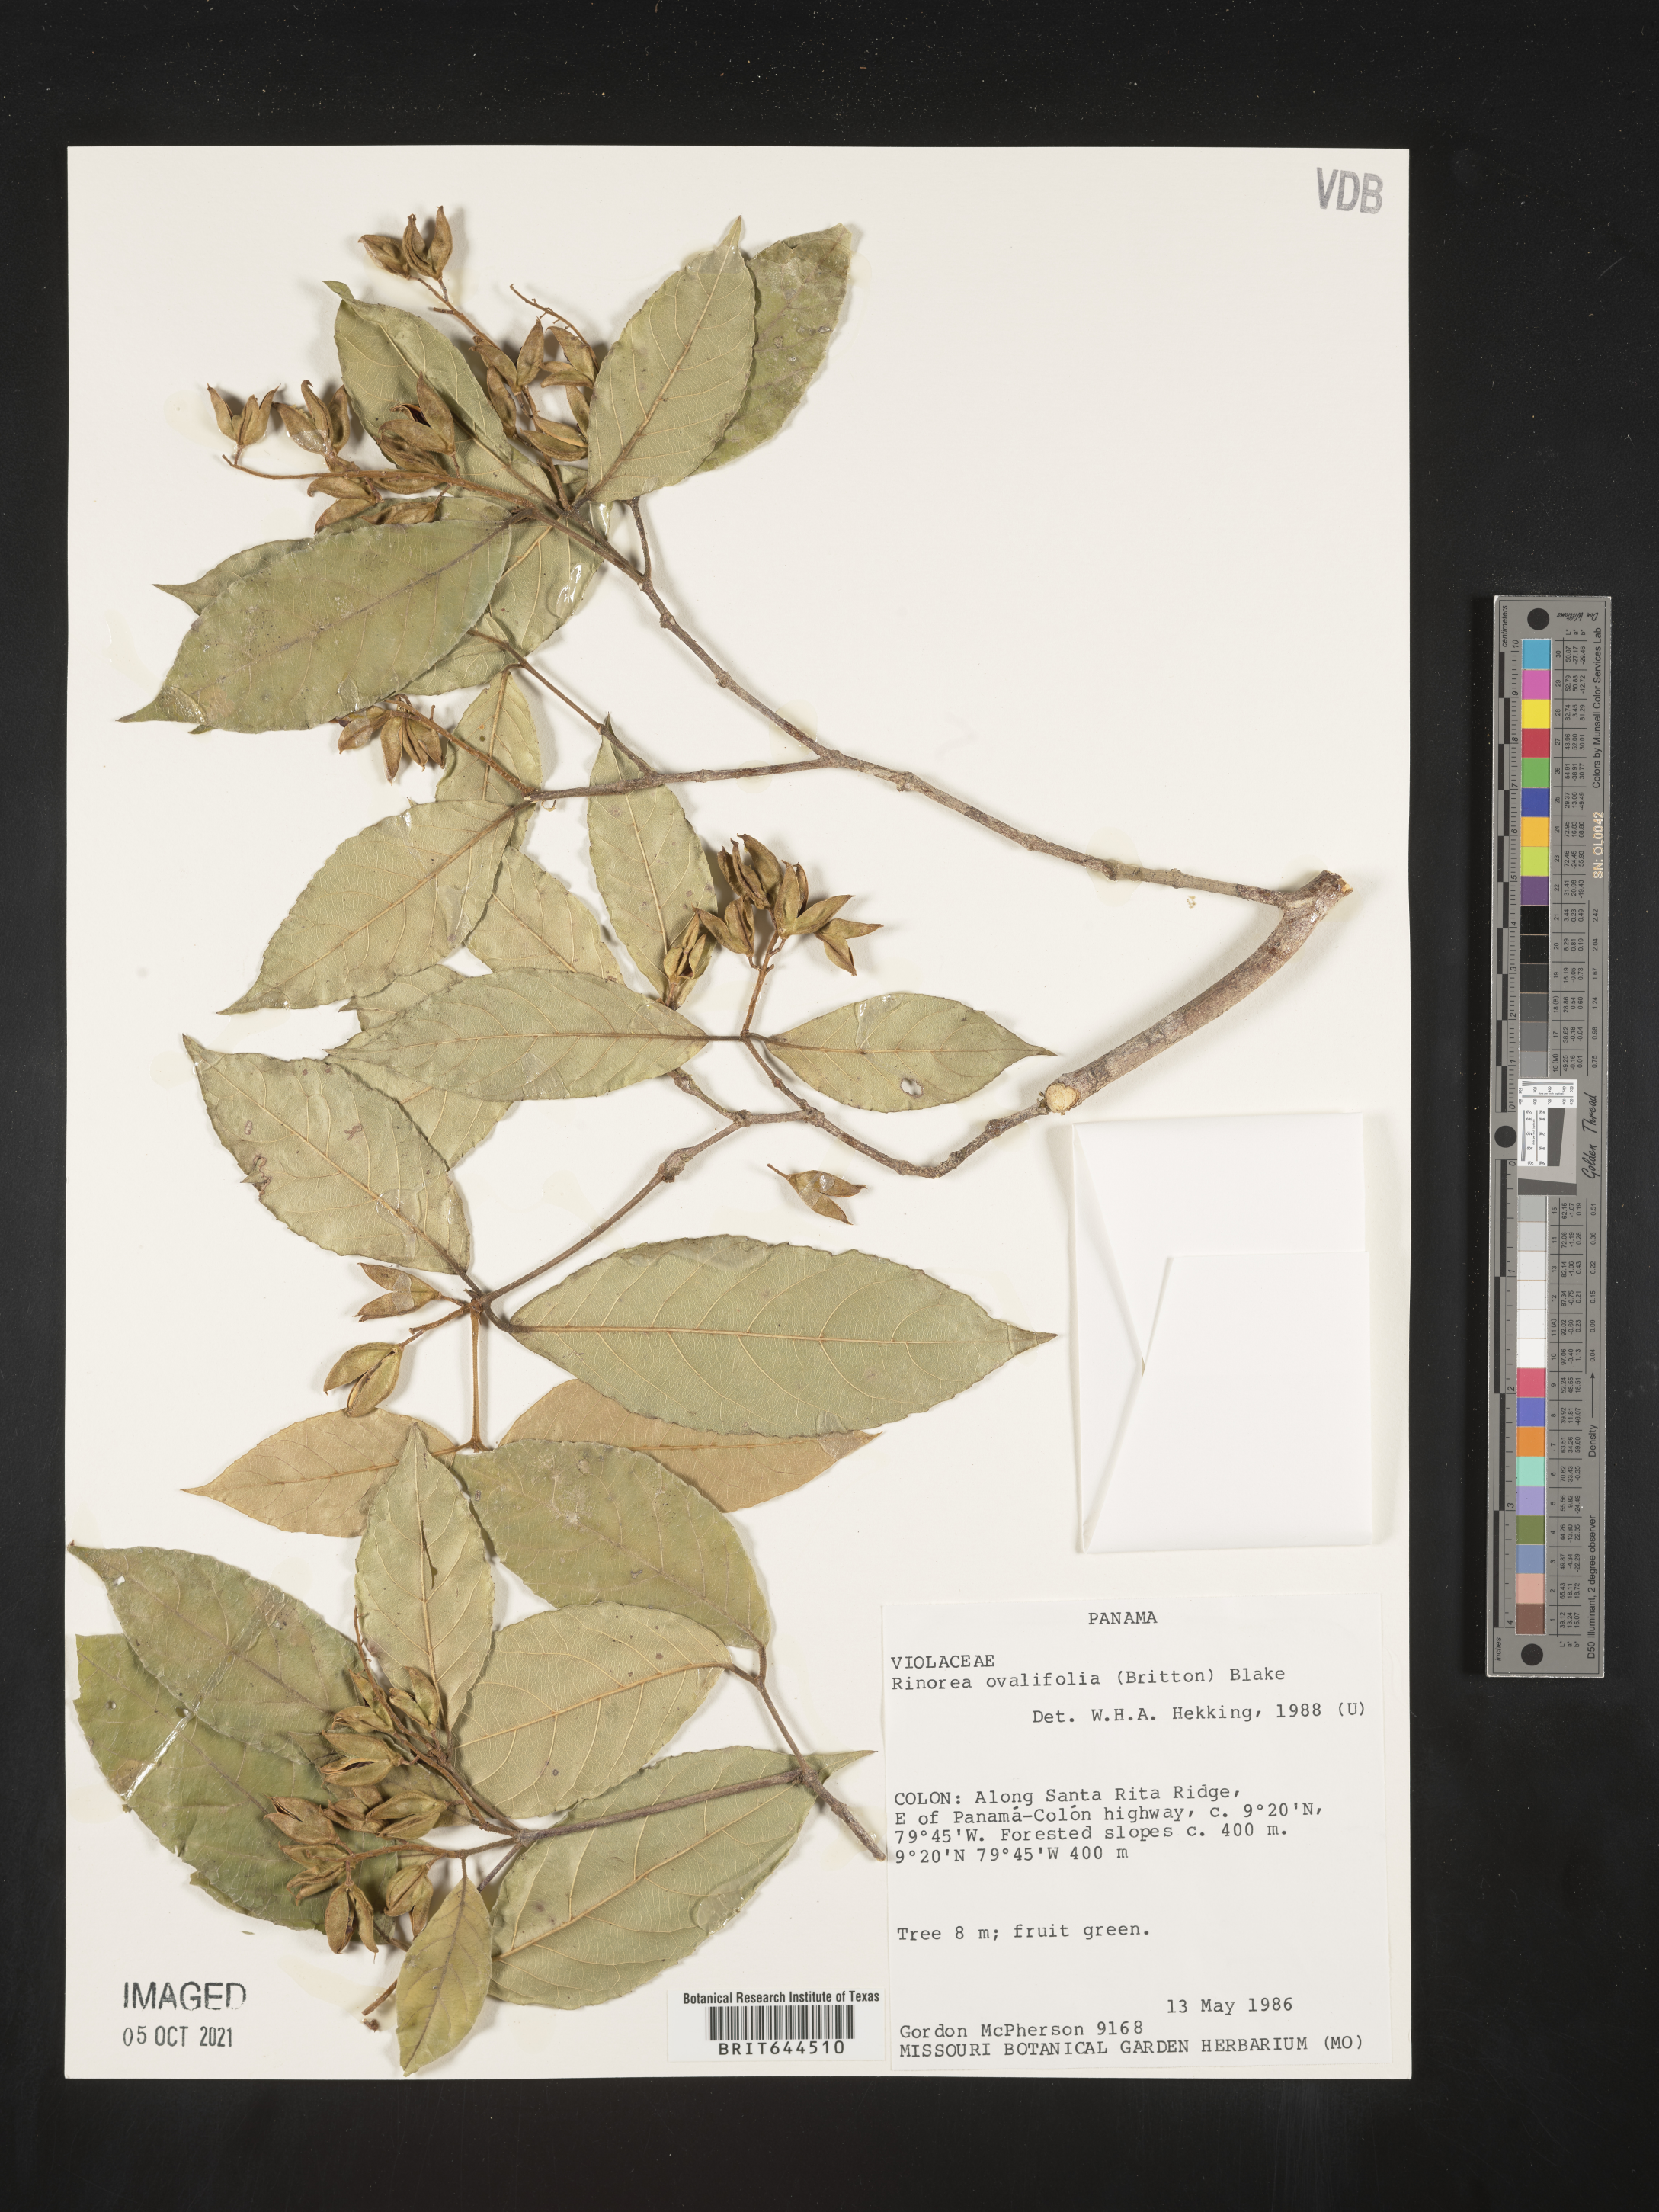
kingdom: Plantae
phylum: Tracheophyta
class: Magnoliopsida
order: Malpighiales
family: Violaceae
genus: Rinorea
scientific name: Rinorea
